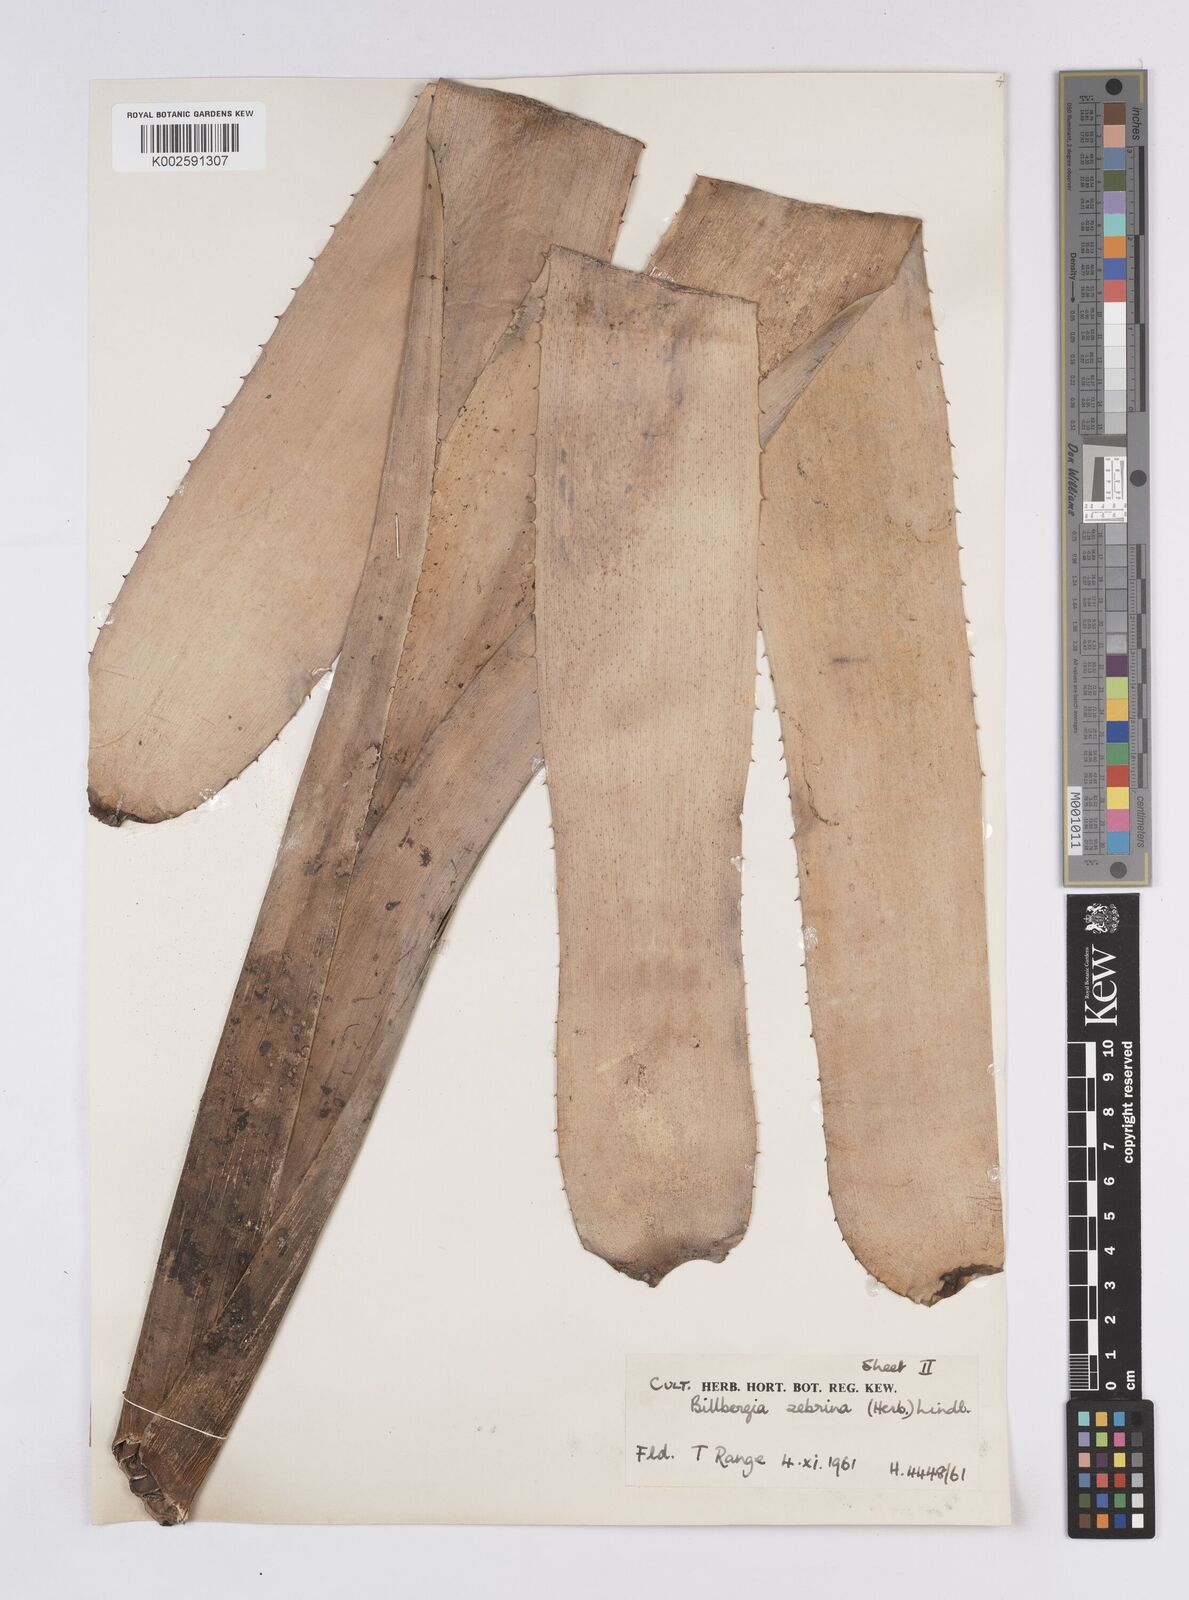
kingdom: Plantae
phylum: Tracheophyta
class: Liliopsida
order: Poales
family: Bromeliaceae
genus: Billbergia
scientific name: Billbergia zebrina
